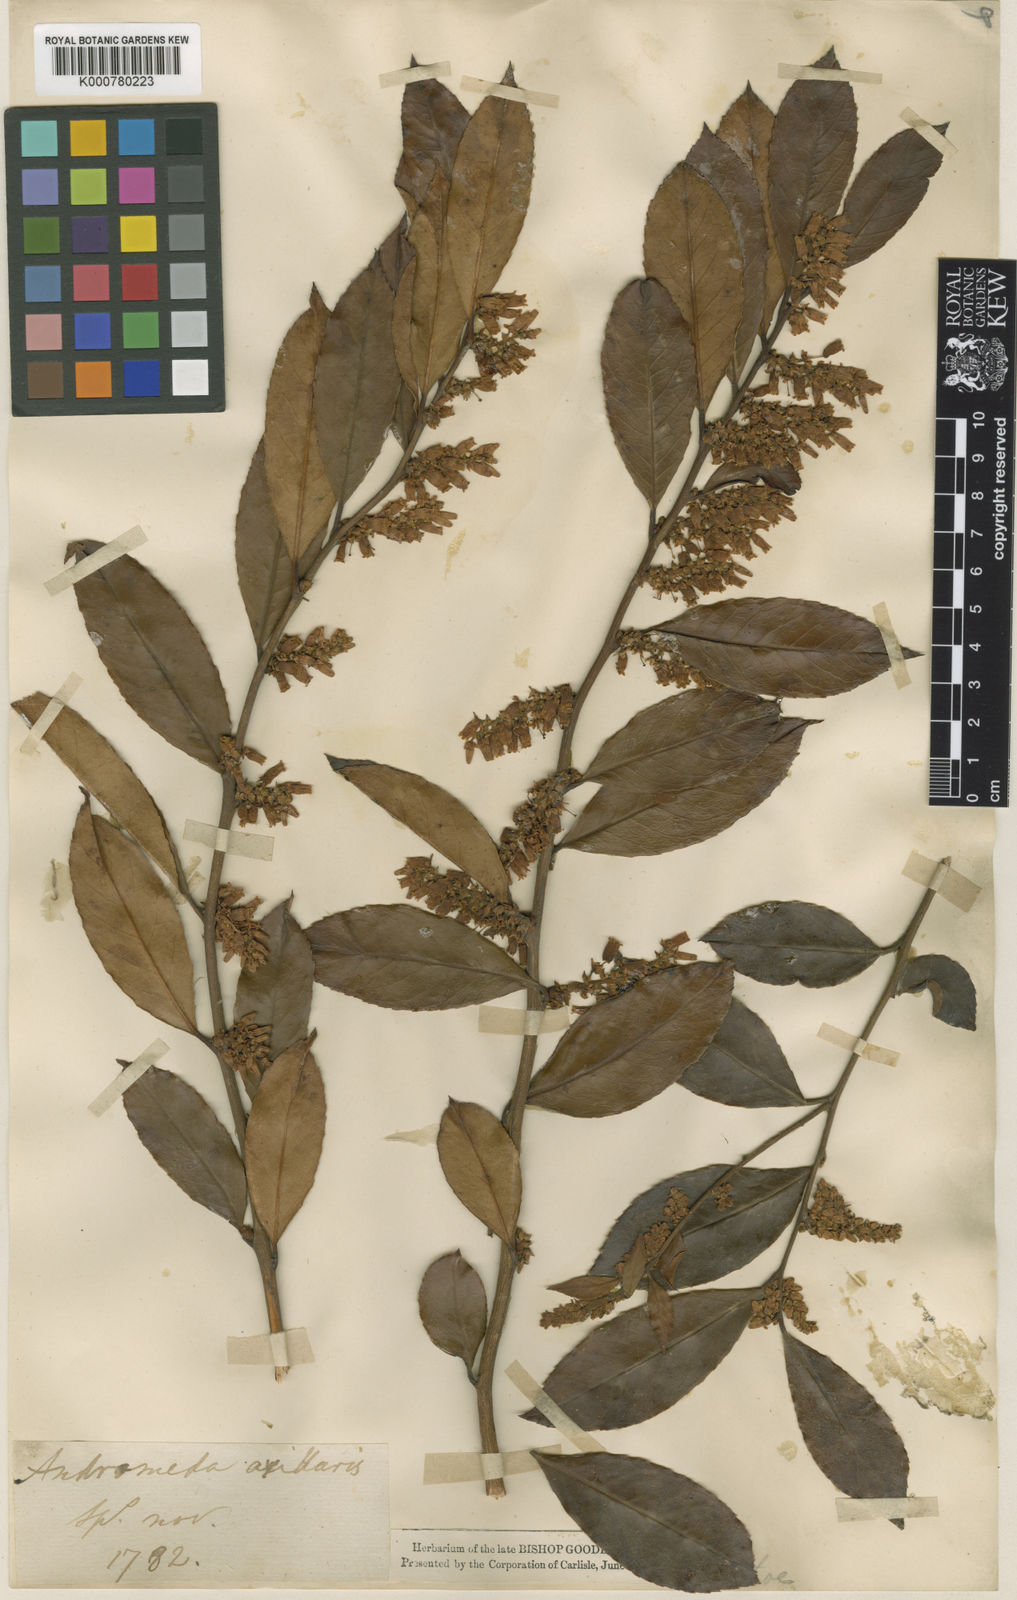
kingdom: Plantae
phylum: Tracheophyta
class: Magnoliopsida
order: Ericales
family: Ericaceae
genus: Leucothoe
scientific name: Leucothoe axillaris
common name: Leucothoe
